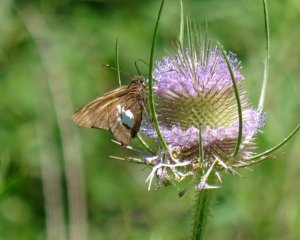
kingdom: Animalia
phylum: Arthropoda
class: Insecta
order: Lepidoptera
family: Hesperiidae
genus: Epargyreus
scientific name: Epargyreus clarus
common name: Silver-spotted Skipper
